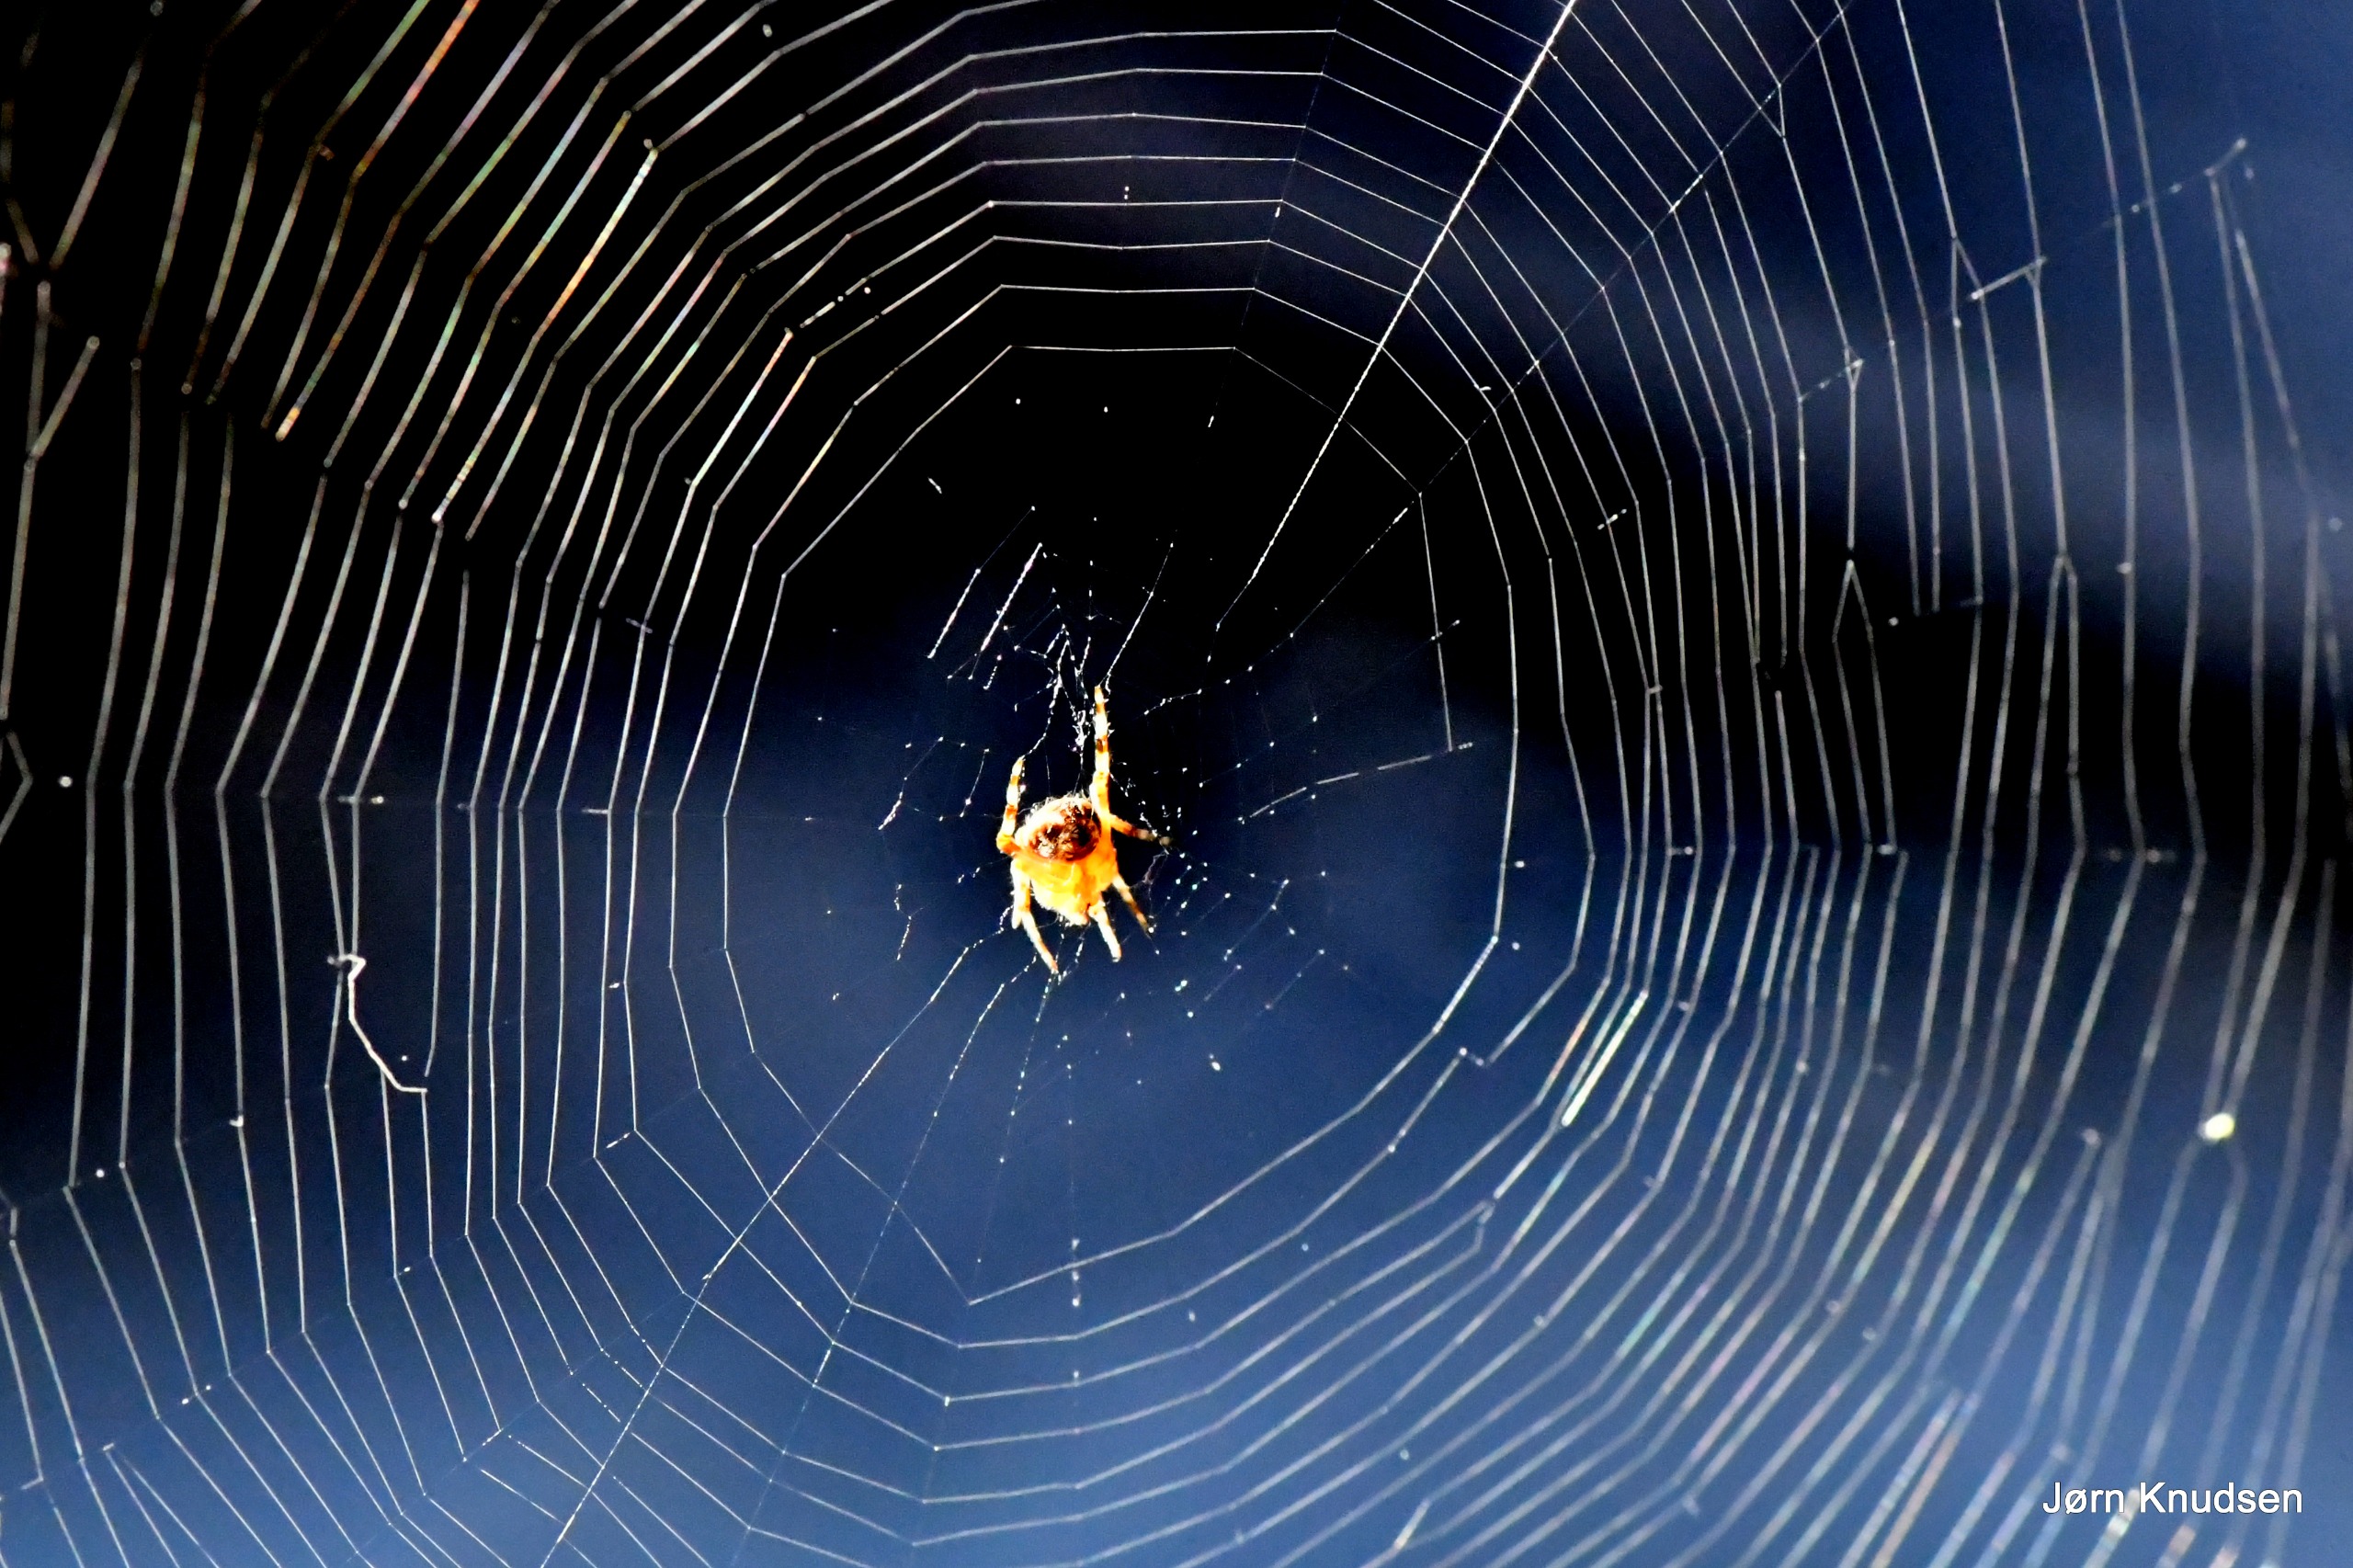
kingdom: Animalia
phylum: Arthropoda
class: Arachnida
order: Araneae
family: Araneidae
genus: Araneus
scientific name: Araneus diadematus
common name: Korsedderkop
